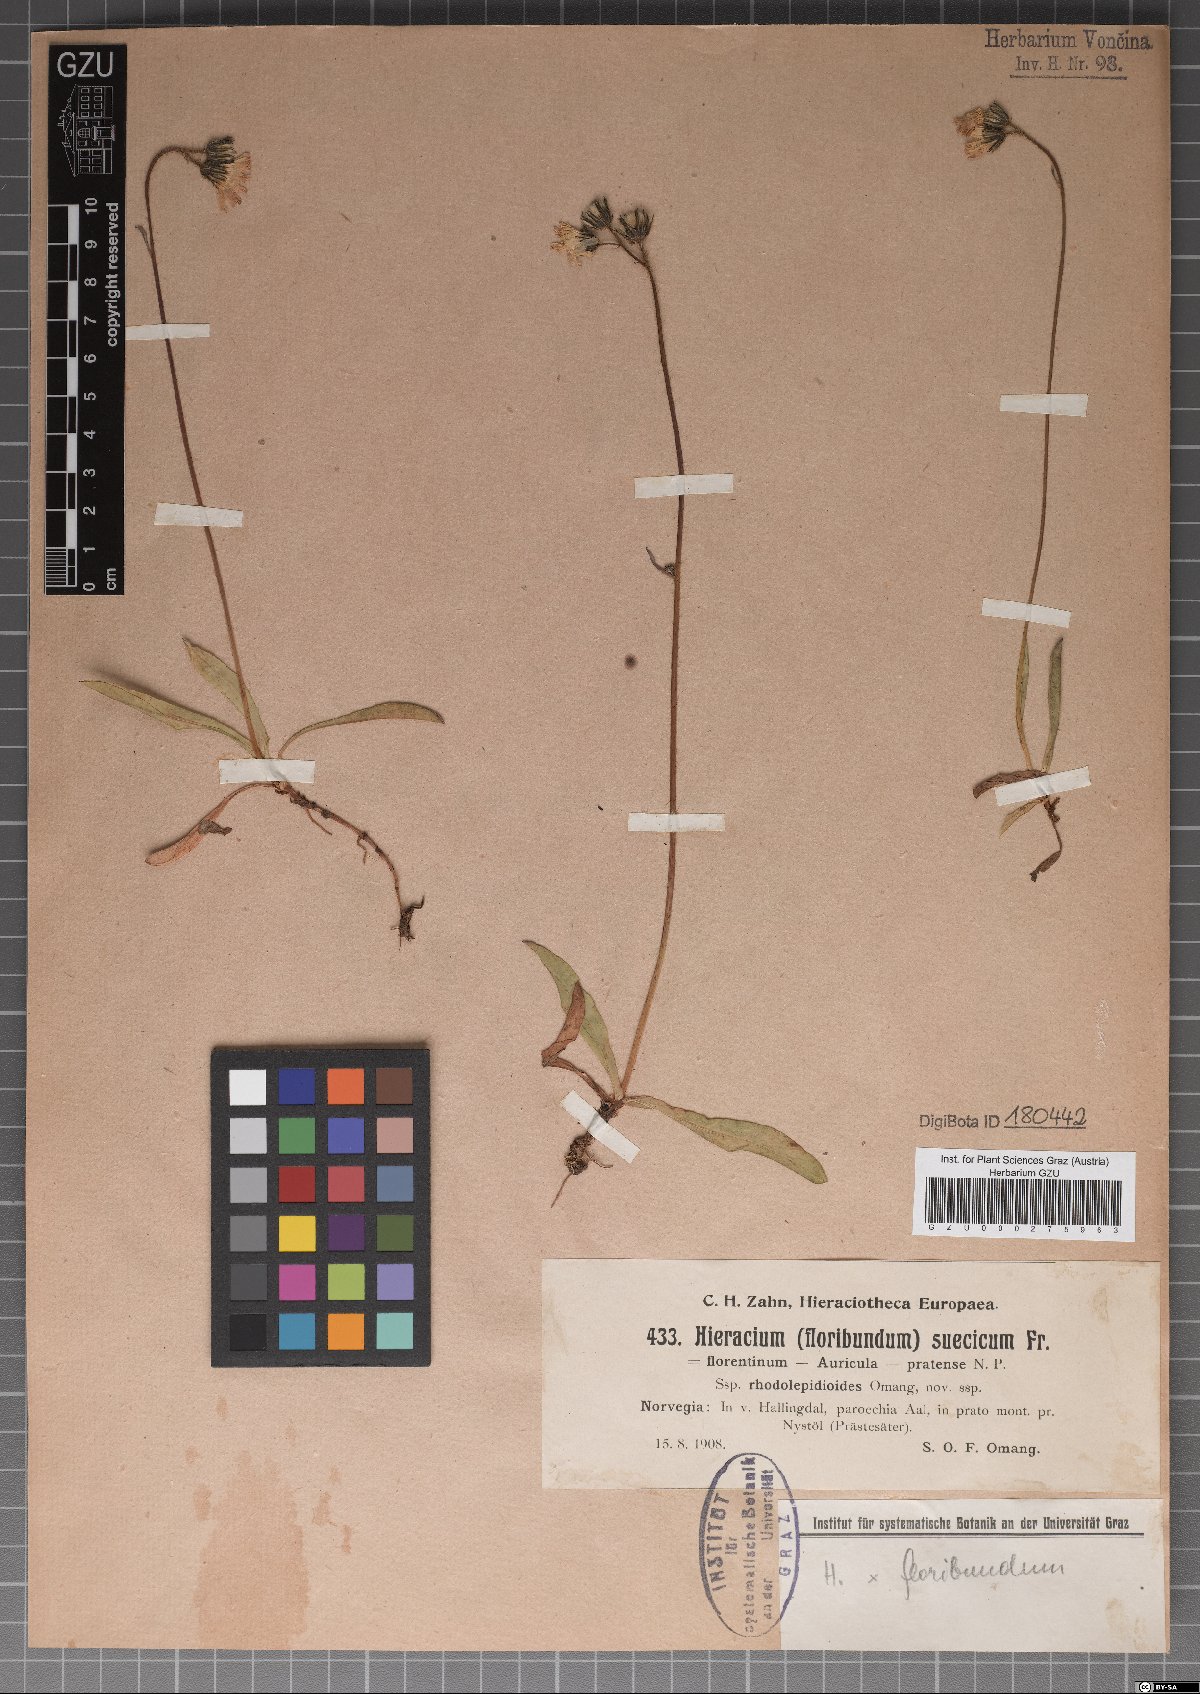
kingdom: Plantae
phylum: Tracheophyta
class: Magnoliopsida
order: Asterales
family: Asteraceae
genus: Hieracium
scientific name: Hieracium suecicum
